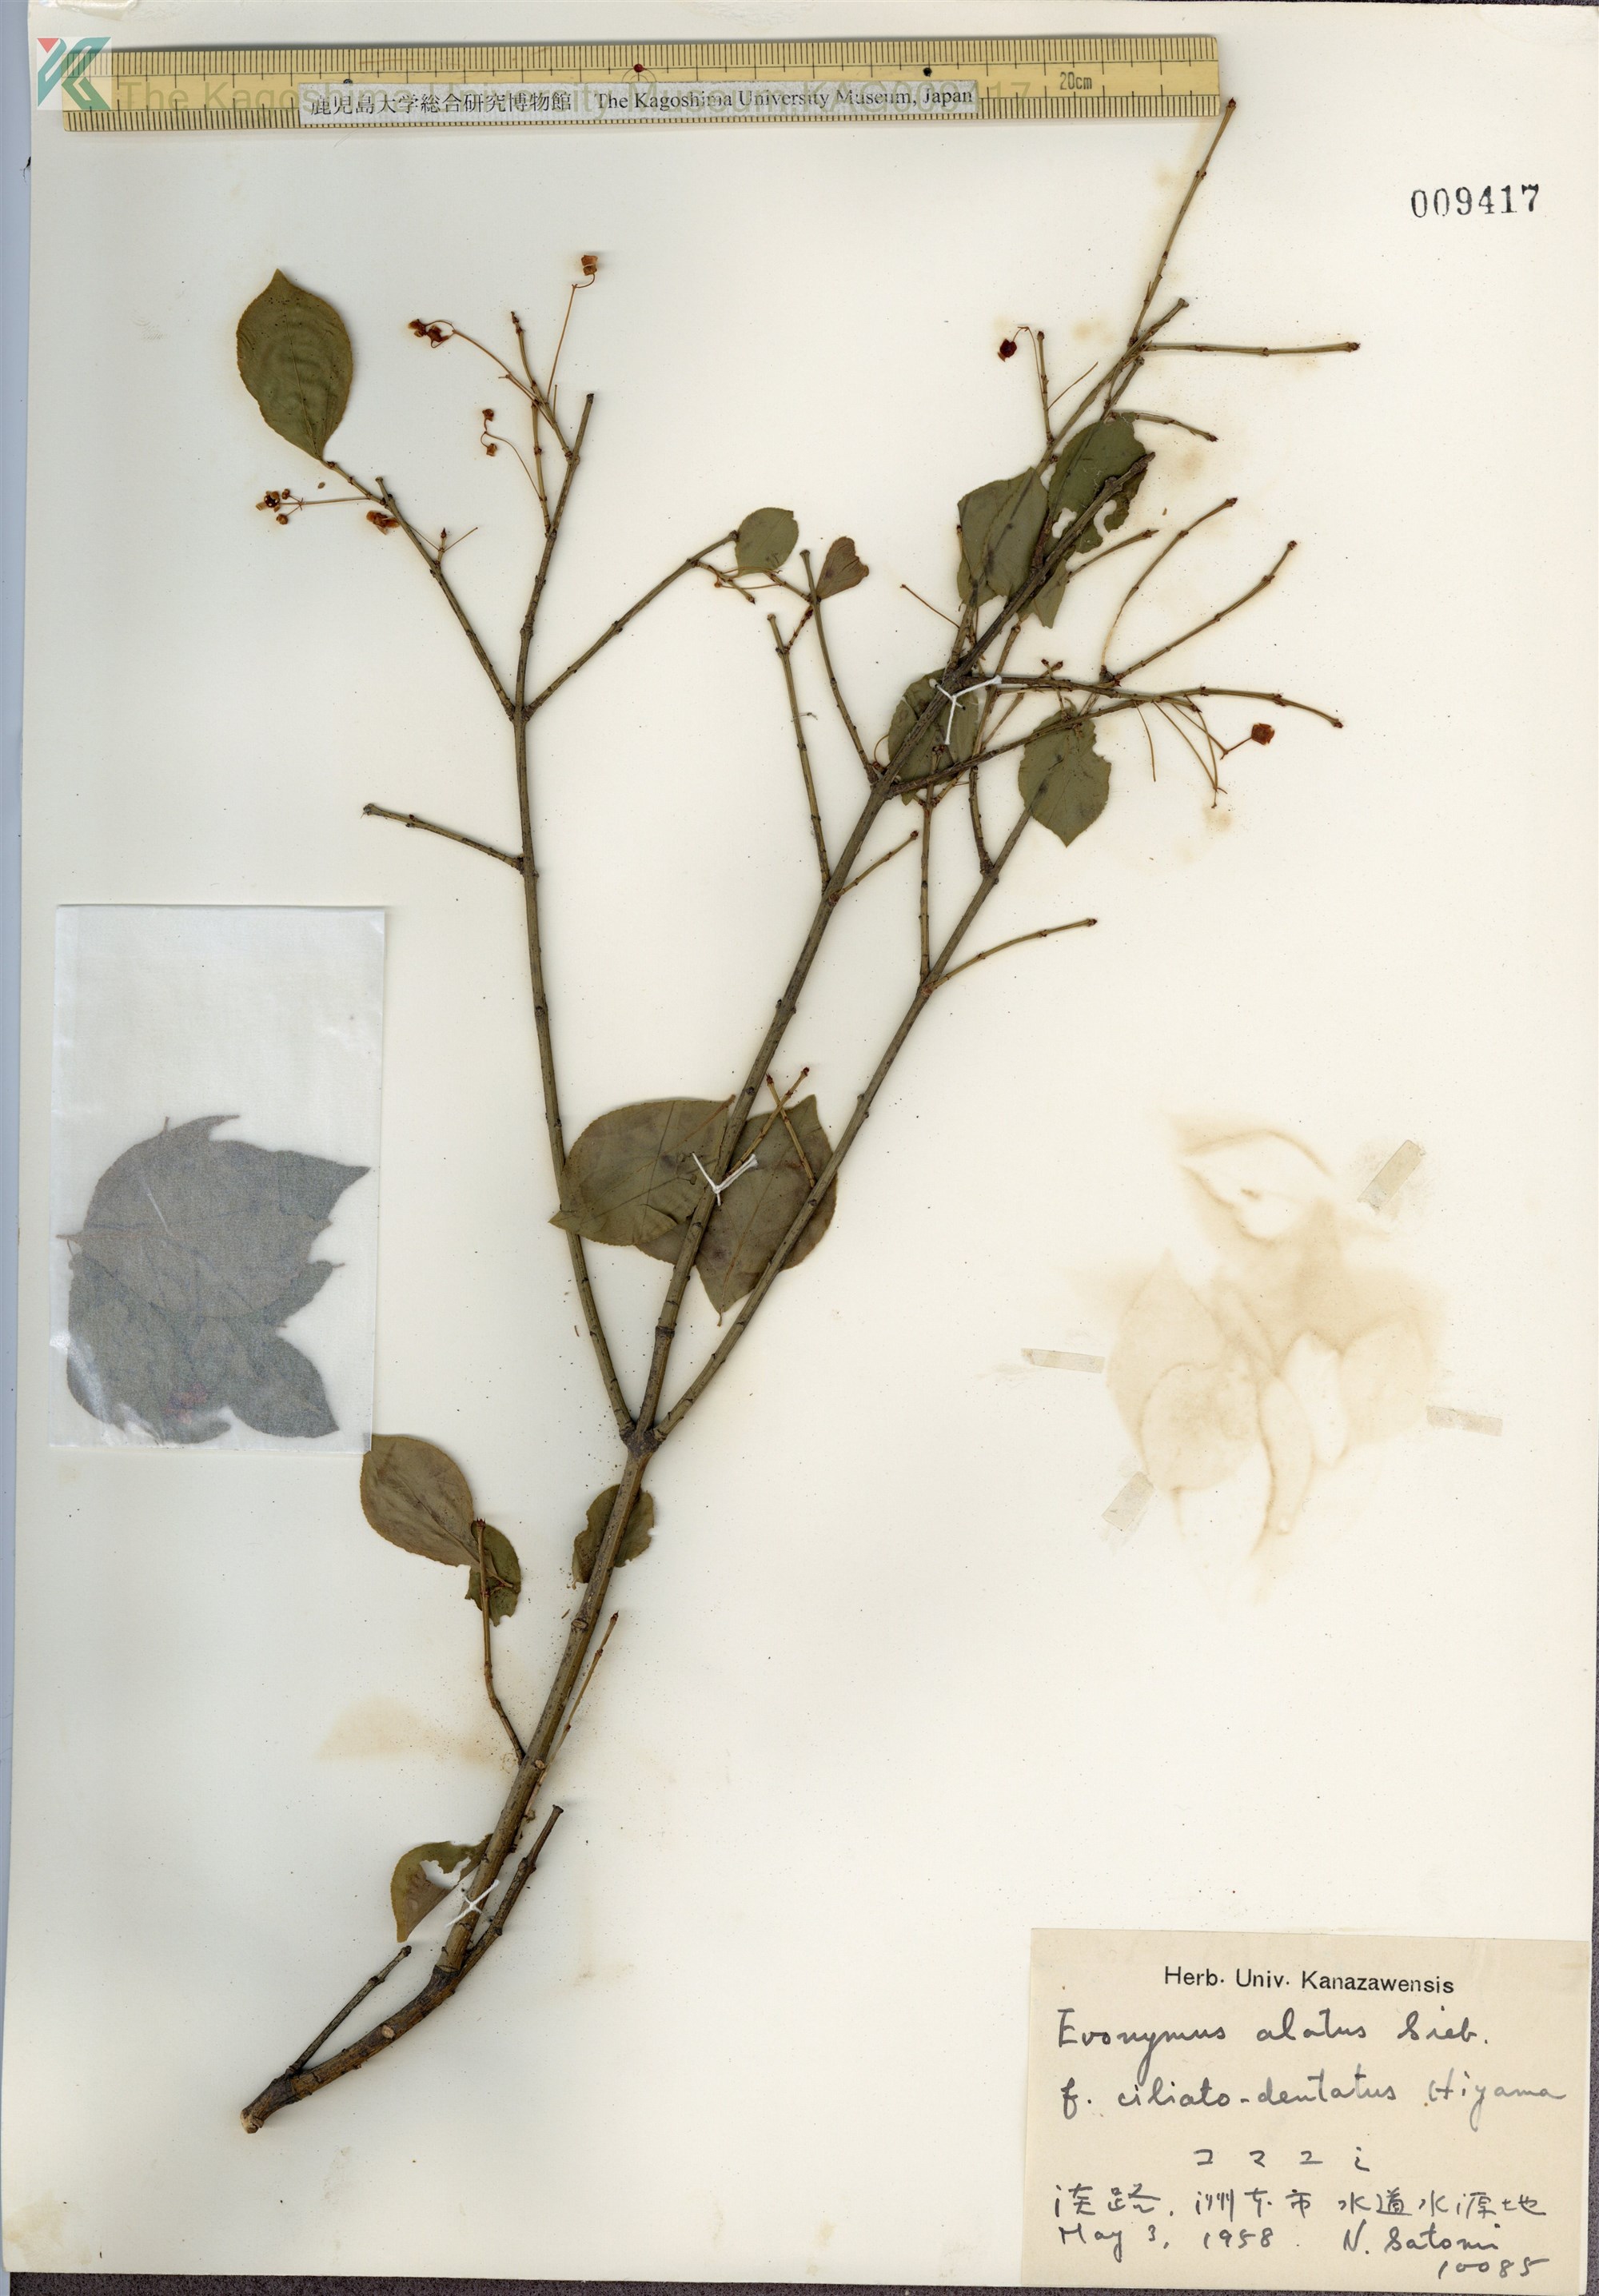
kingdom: Plantae
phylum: Tracheophyta
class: Magnoliopsida
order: Celastrales
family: Celastraceae
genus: Euonymus
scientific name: Euonymus alatus
